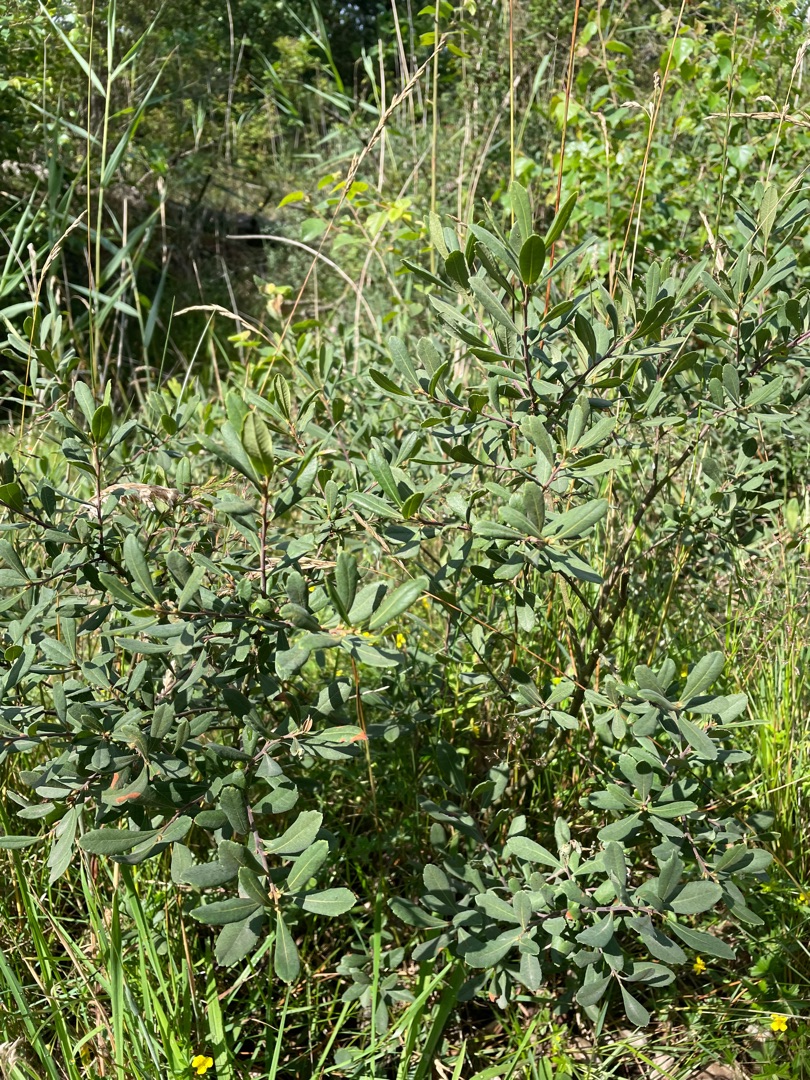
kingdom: Plantae
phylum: Tracheophyta
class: Magnoliopsida
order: Fagales
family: Myricaceae
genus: Myrica
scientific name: Myrica gale
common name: Pors
